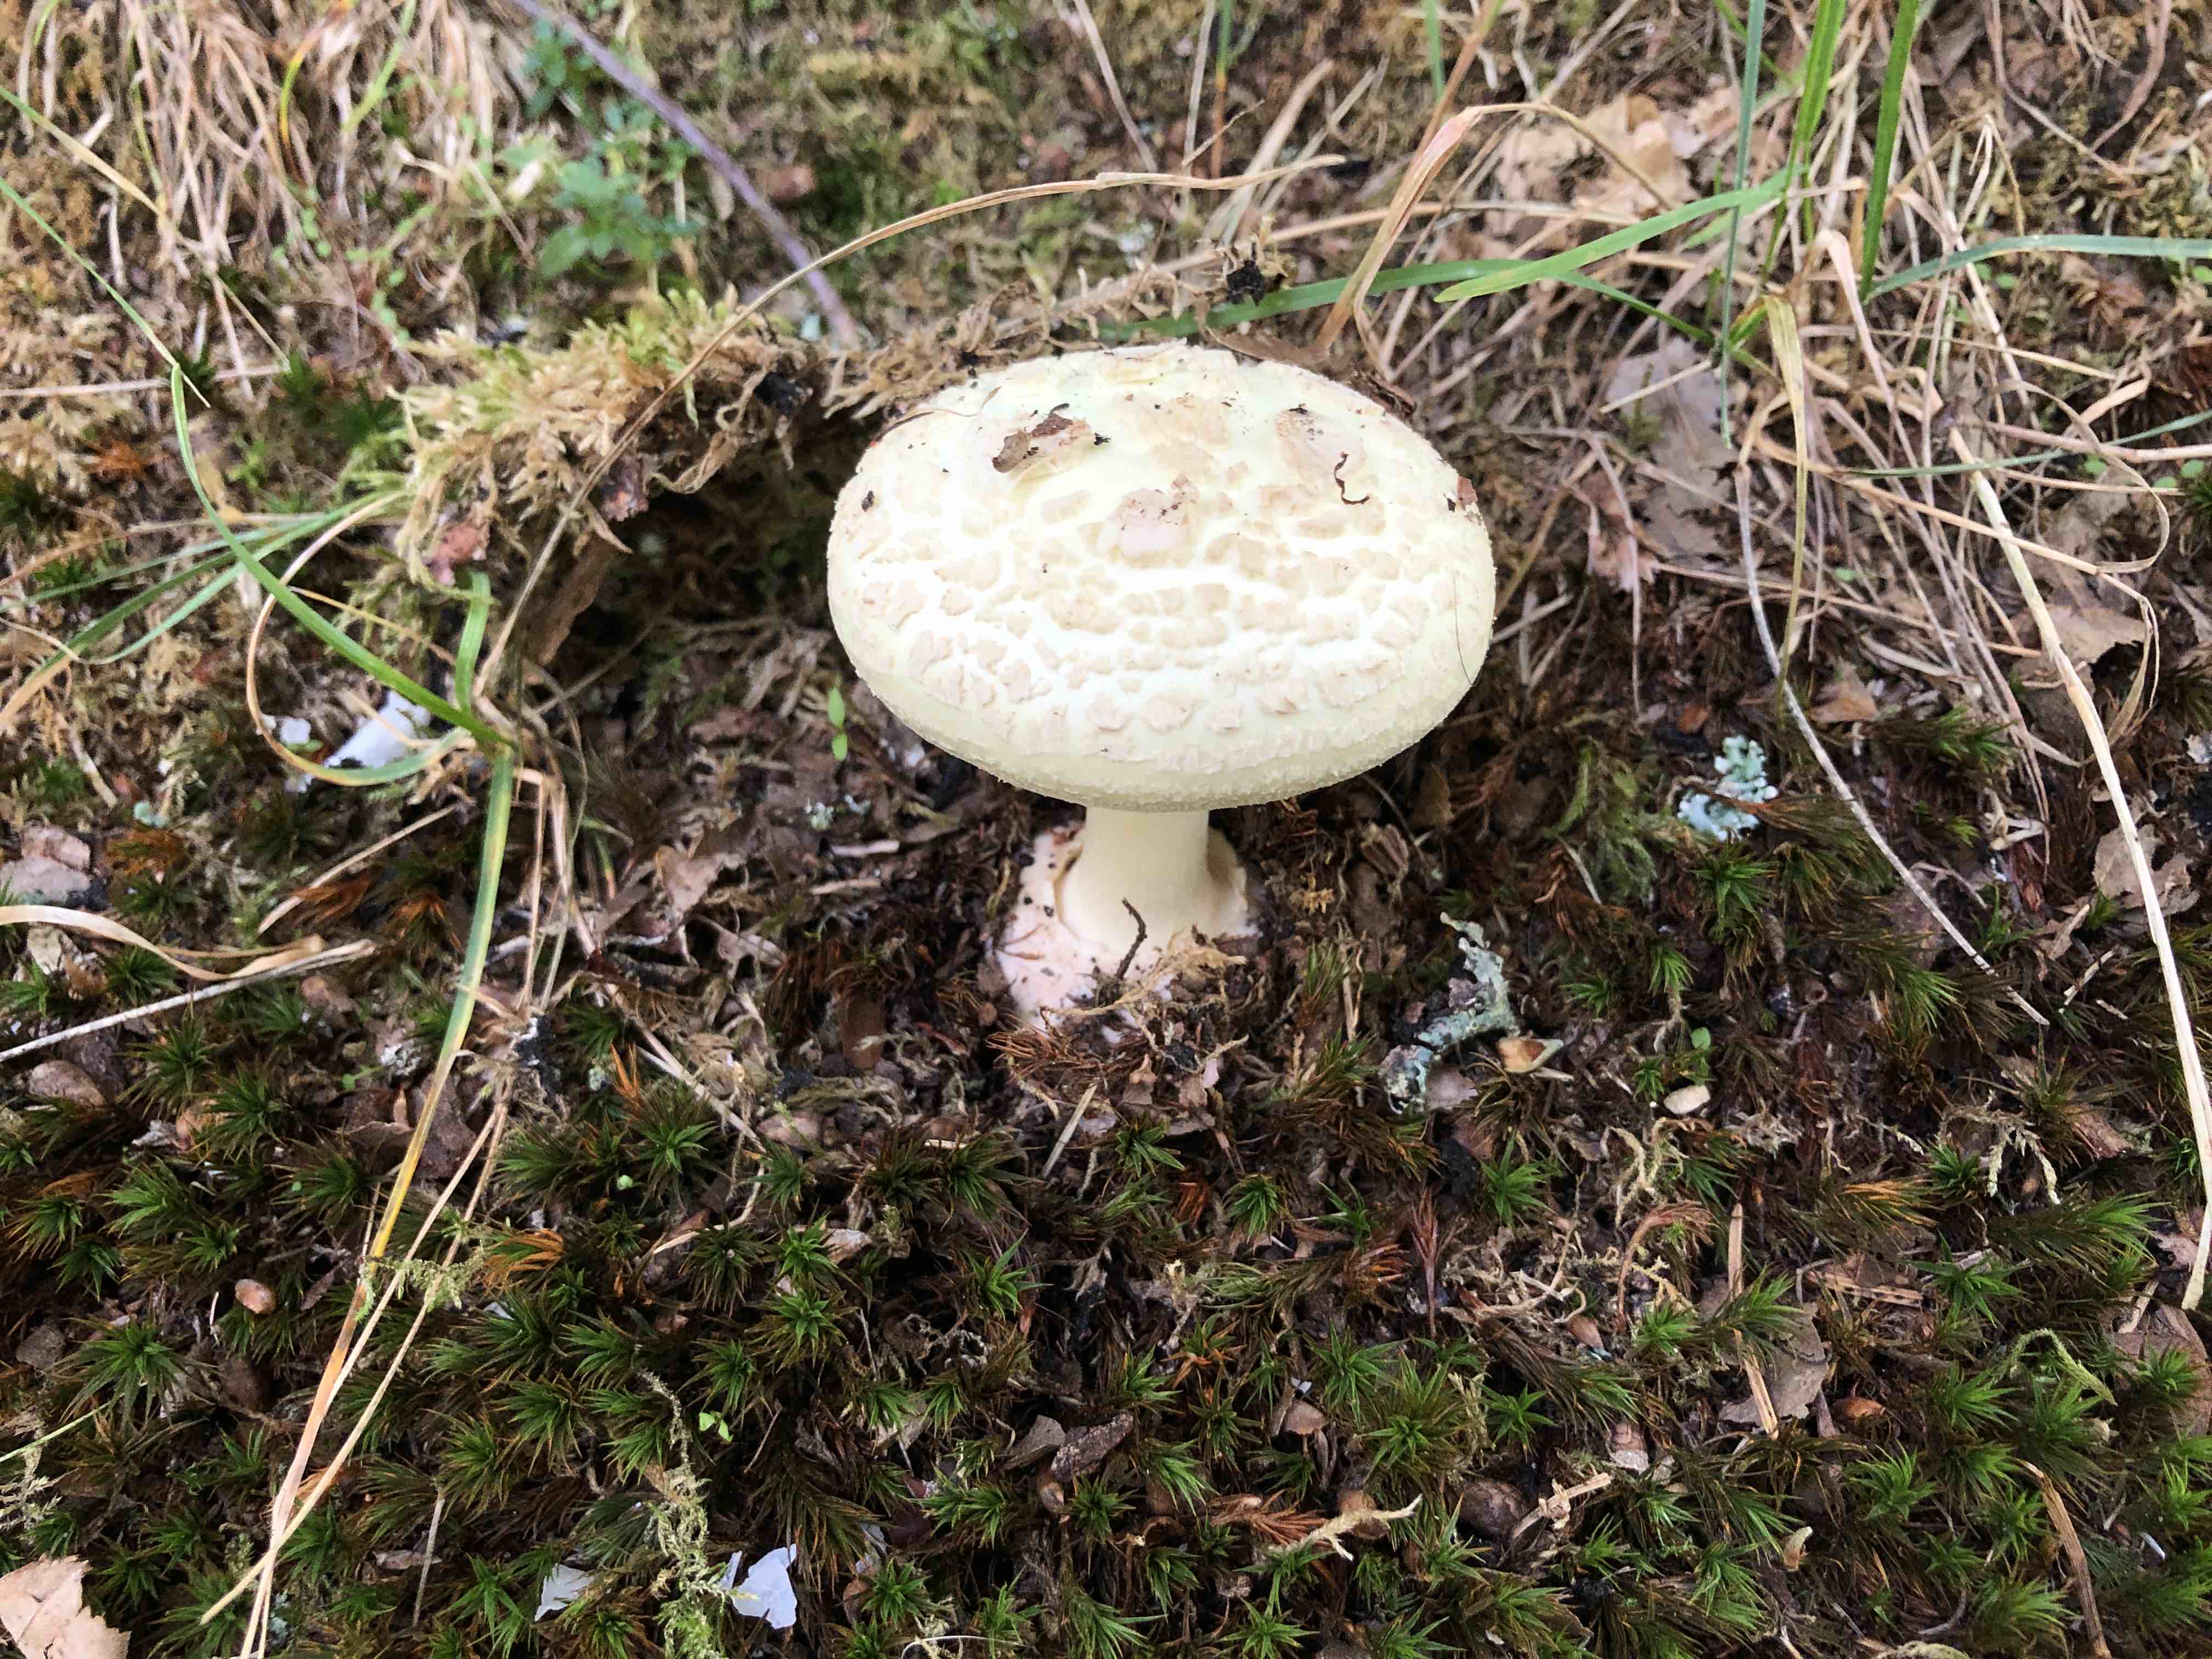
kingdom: Fungi
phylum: Basidiomycota
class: Agaricomycetes
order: Agaricales
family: Amanitaceae
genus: Amanita
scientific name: Amanita citrina
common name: kugleknoldet fluesvamp
